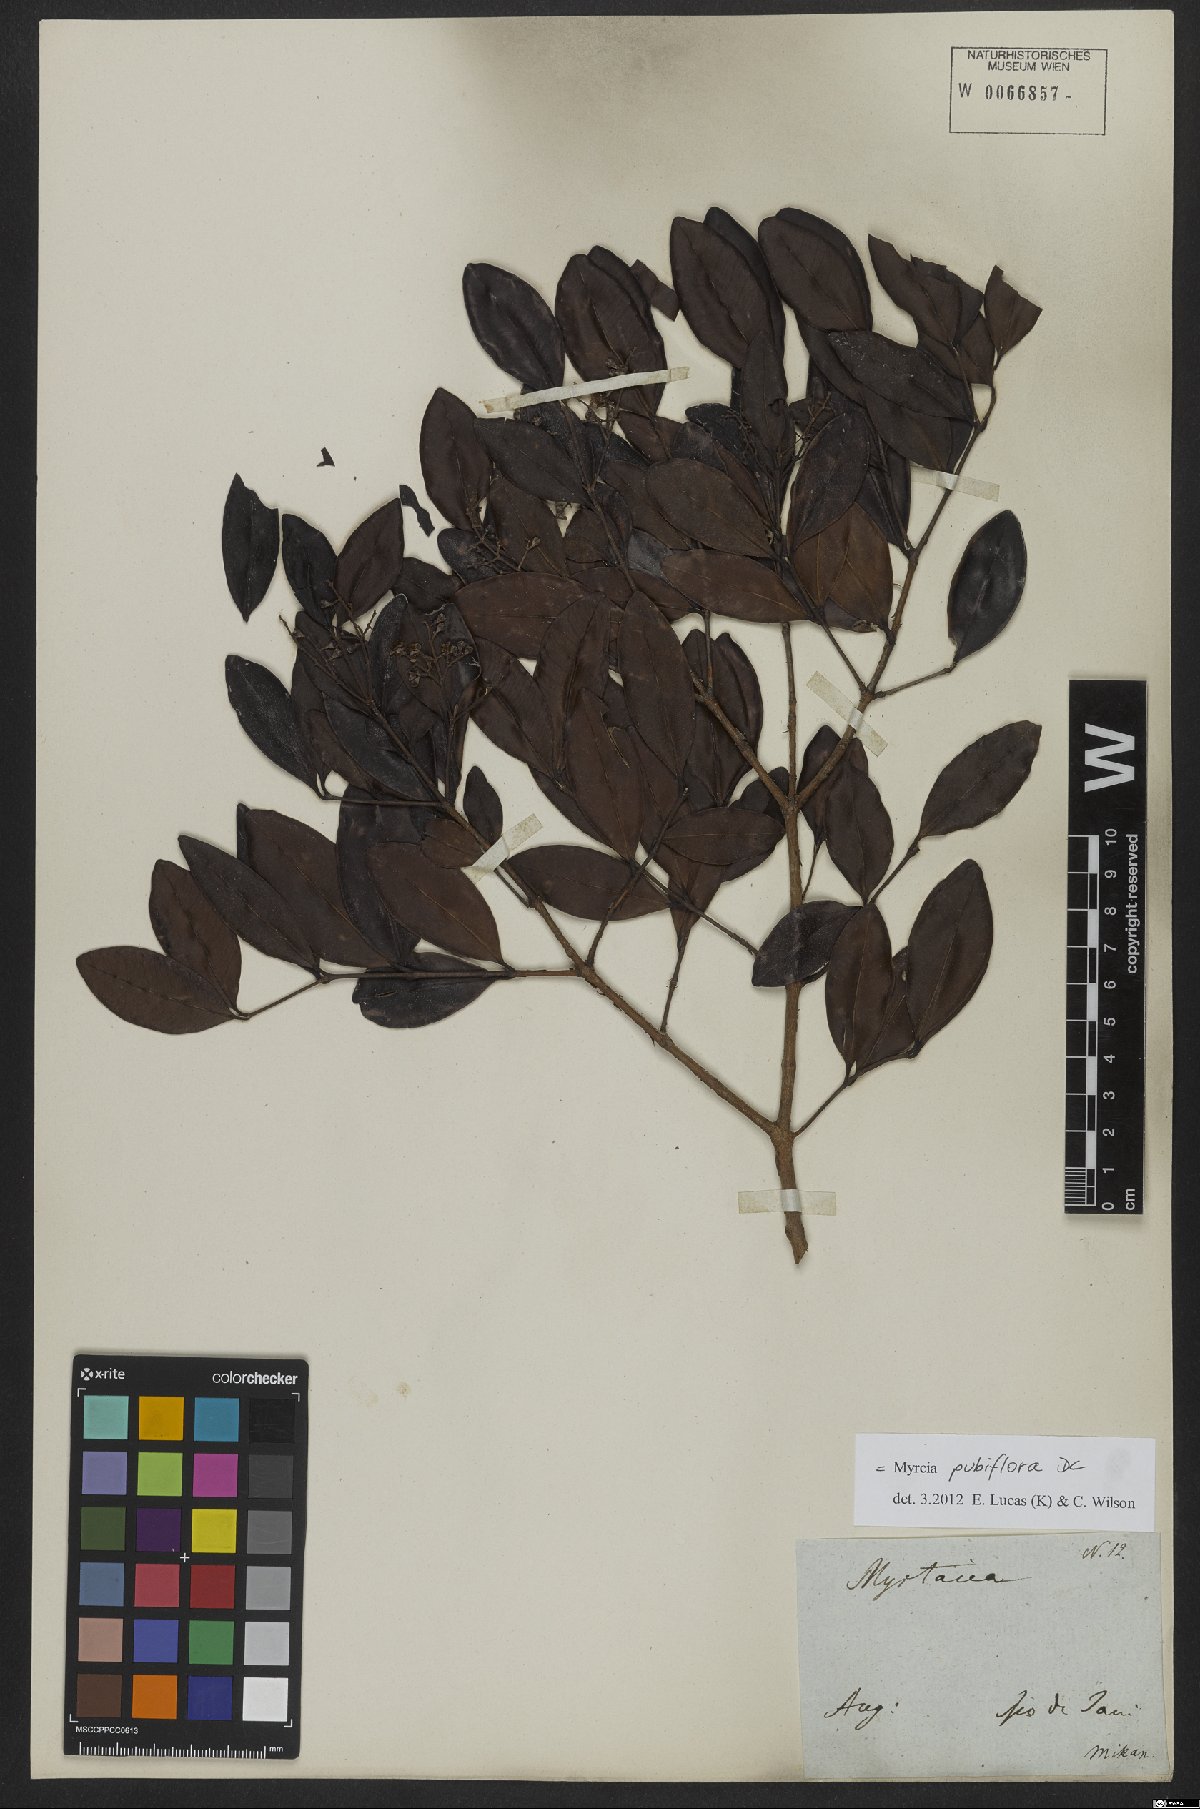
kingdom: Plantae
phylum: Tracheophyta
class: Magnoliopsida
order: Myrtales
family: Myrtaceae
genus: Myrcia
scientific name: Myrcia pubiflora
